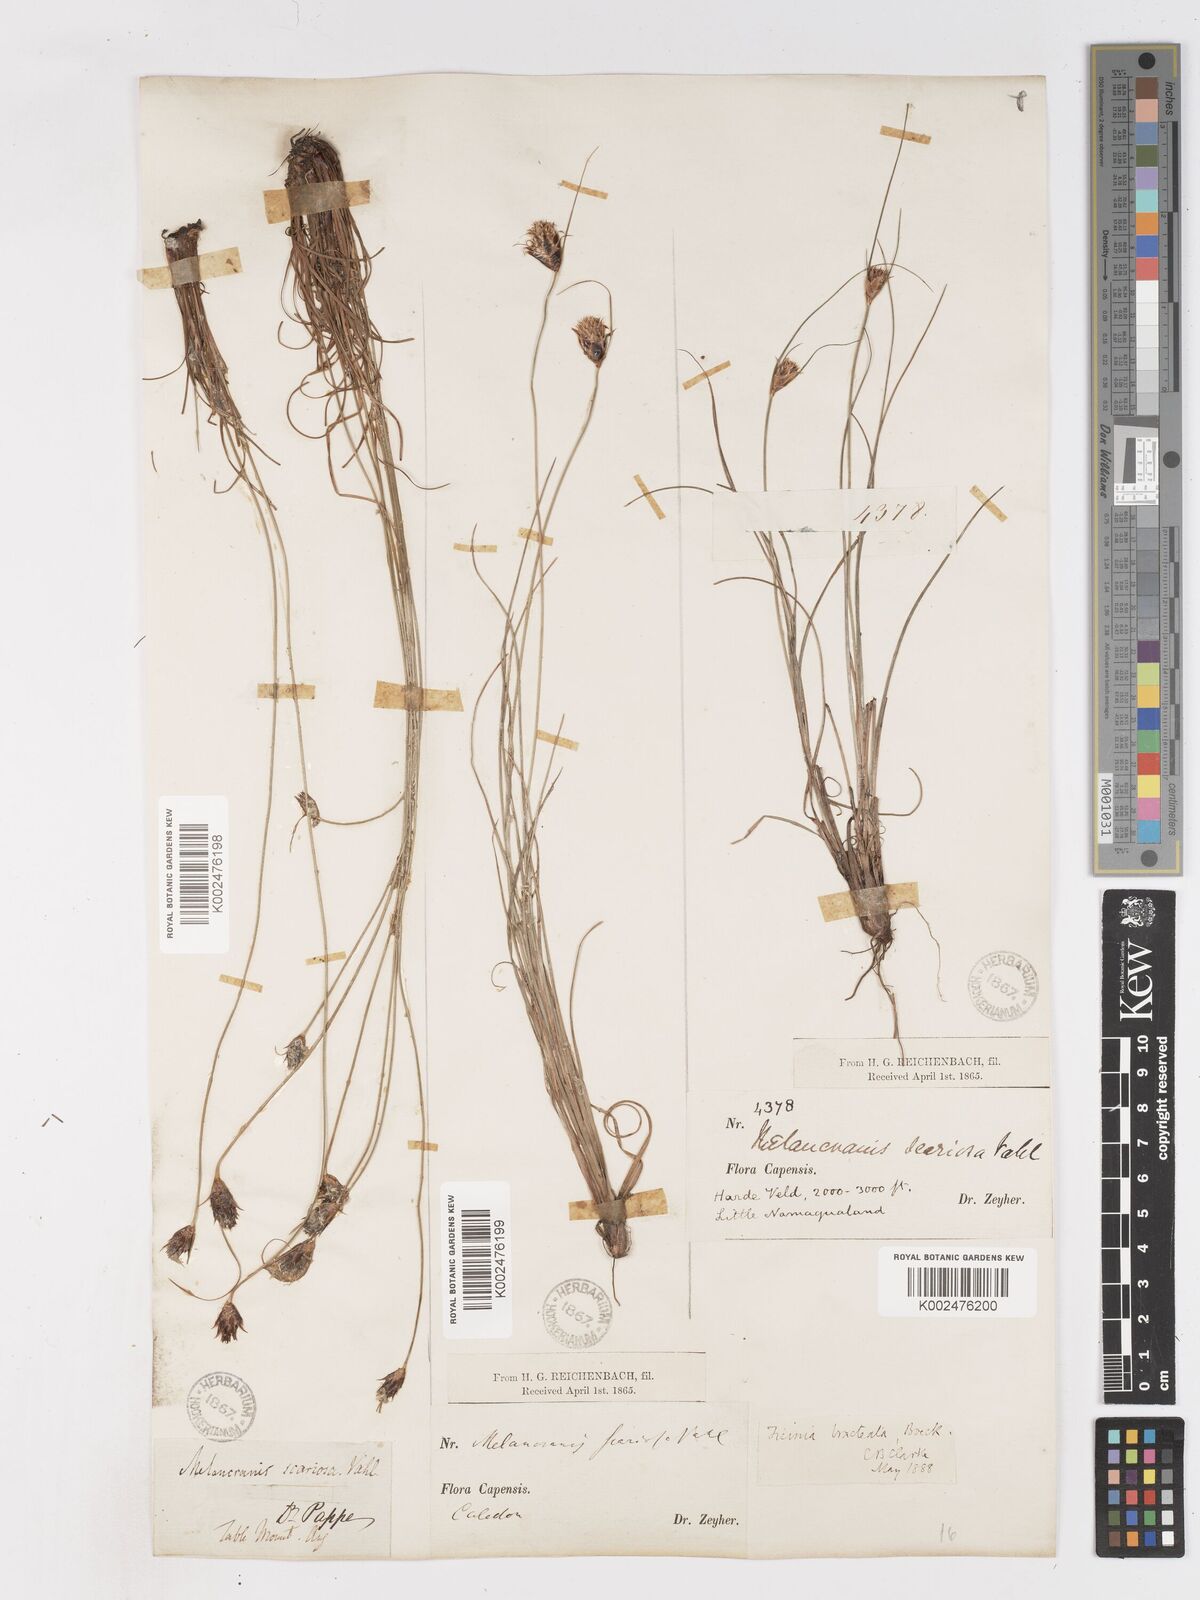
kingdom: Plantae
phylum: Tracheophyta
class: Liliopsida
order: Poales
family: Cyperaceae
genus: Ficinia
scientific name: Ficinia nigrescens
